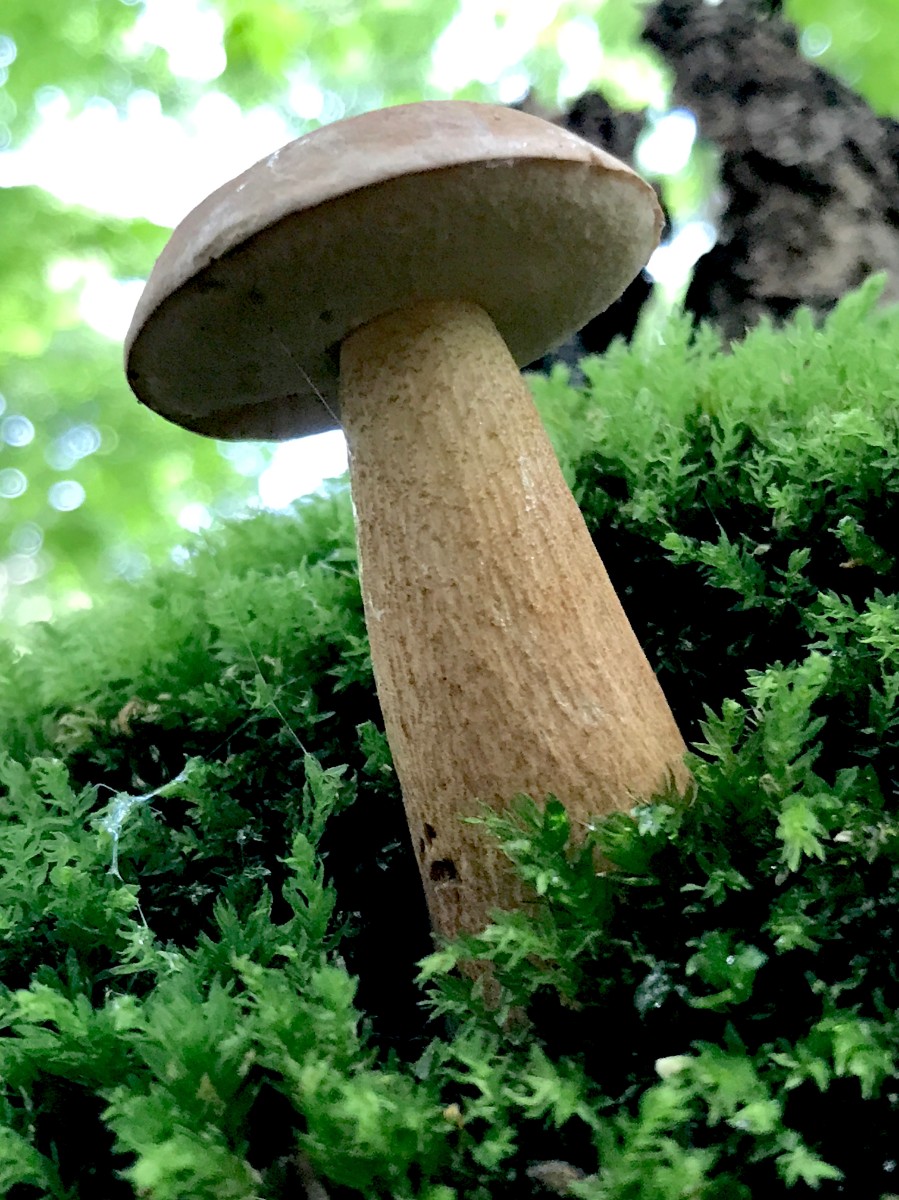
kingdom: Fungi
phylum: Basidiomycota
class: Agaricomycetes
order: Boletales
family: Boletaceae
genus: Tylopilus
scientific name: Tylopilus felleus
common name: galderørhat
